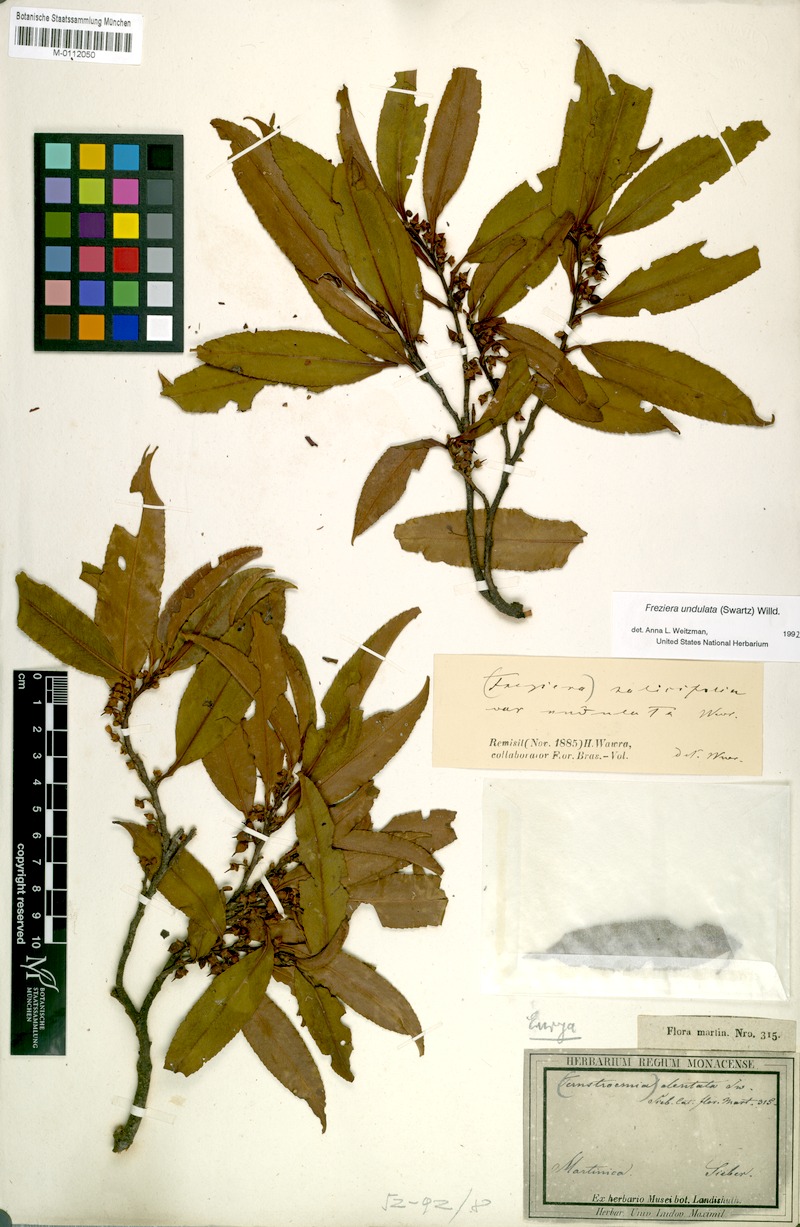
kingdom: Plantae
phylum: Tracheophyta
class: Magnoliopsida
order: Ericales
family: Pentaphylacaceae
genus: Freziera
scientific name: Freziera undulata
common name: Mountain mahogany
